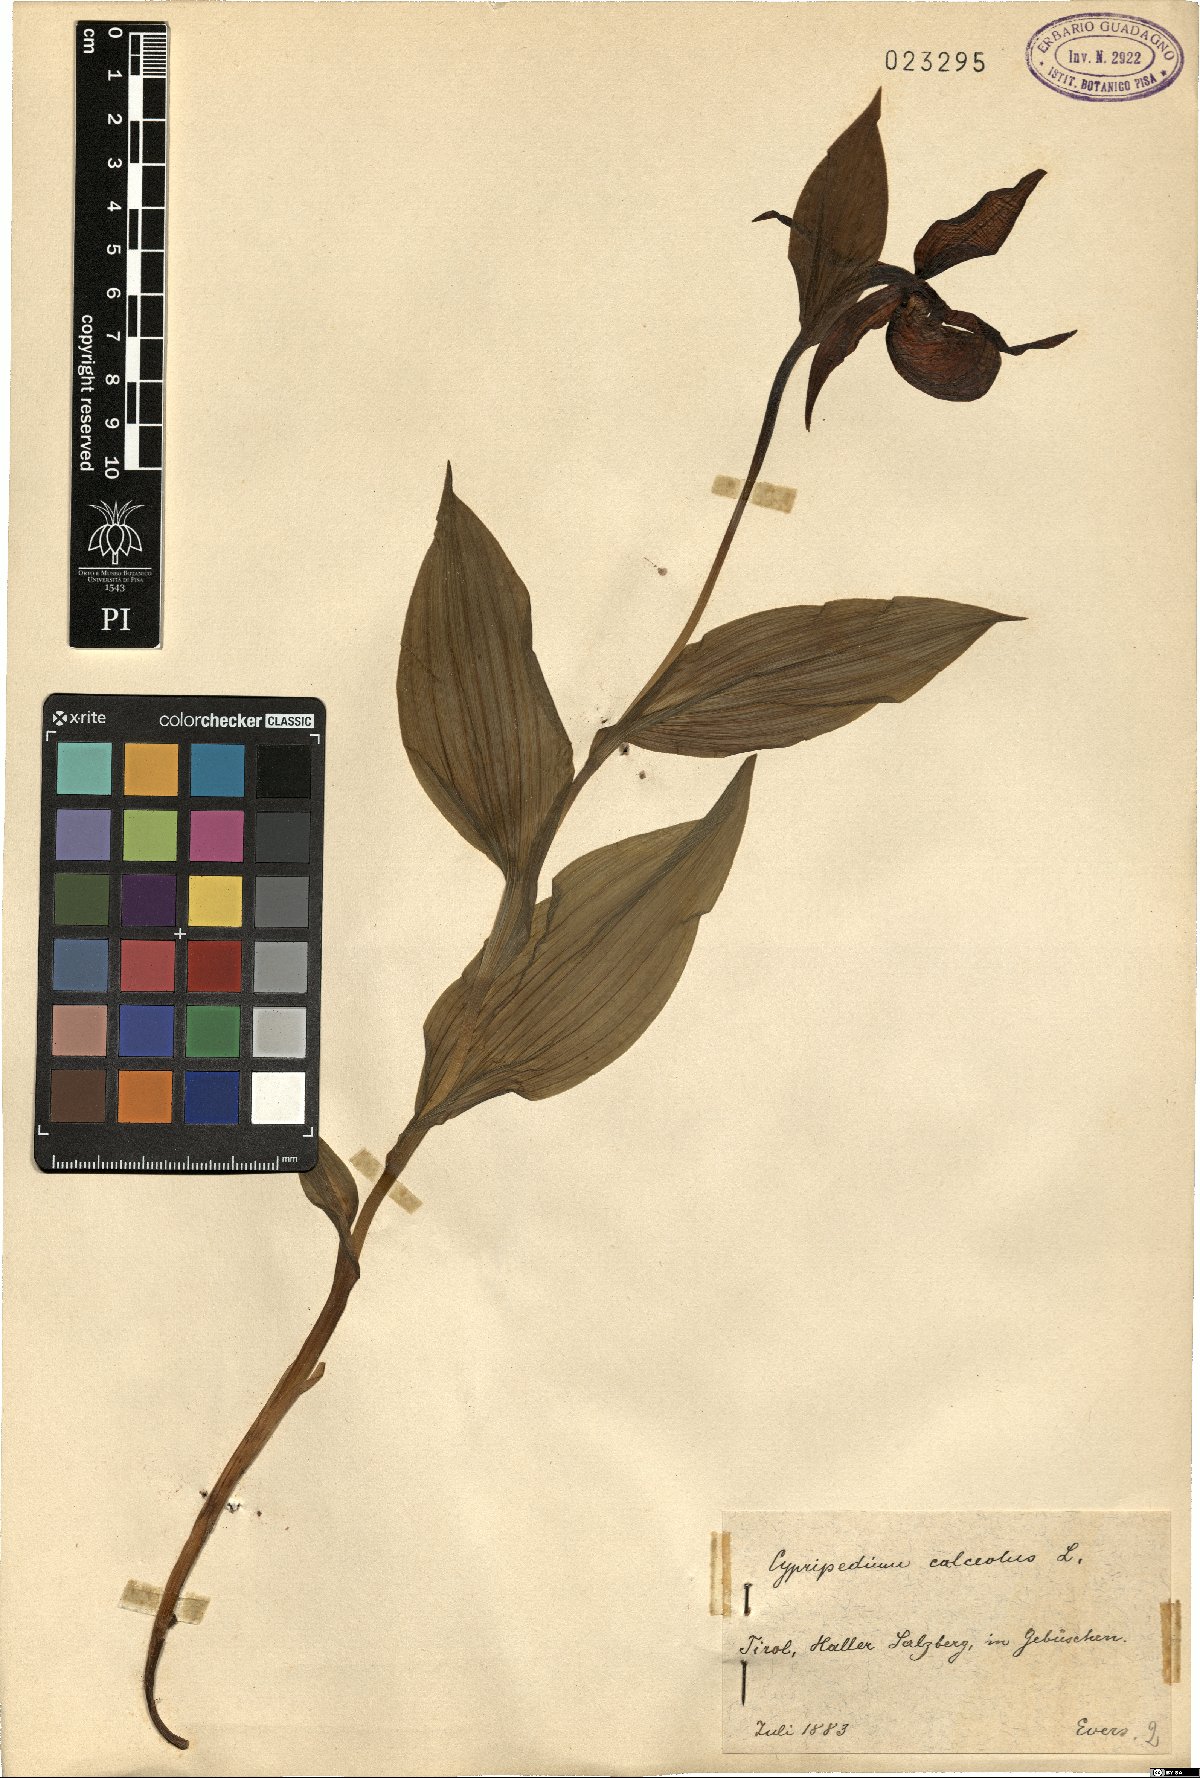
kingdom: Plantae
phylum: Tracheophyta
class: Liliopsida
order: Asparagales
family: Orchidaceae
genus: Cypripedium
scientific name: Cypripedium calceolus
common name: Lady's-slipper
